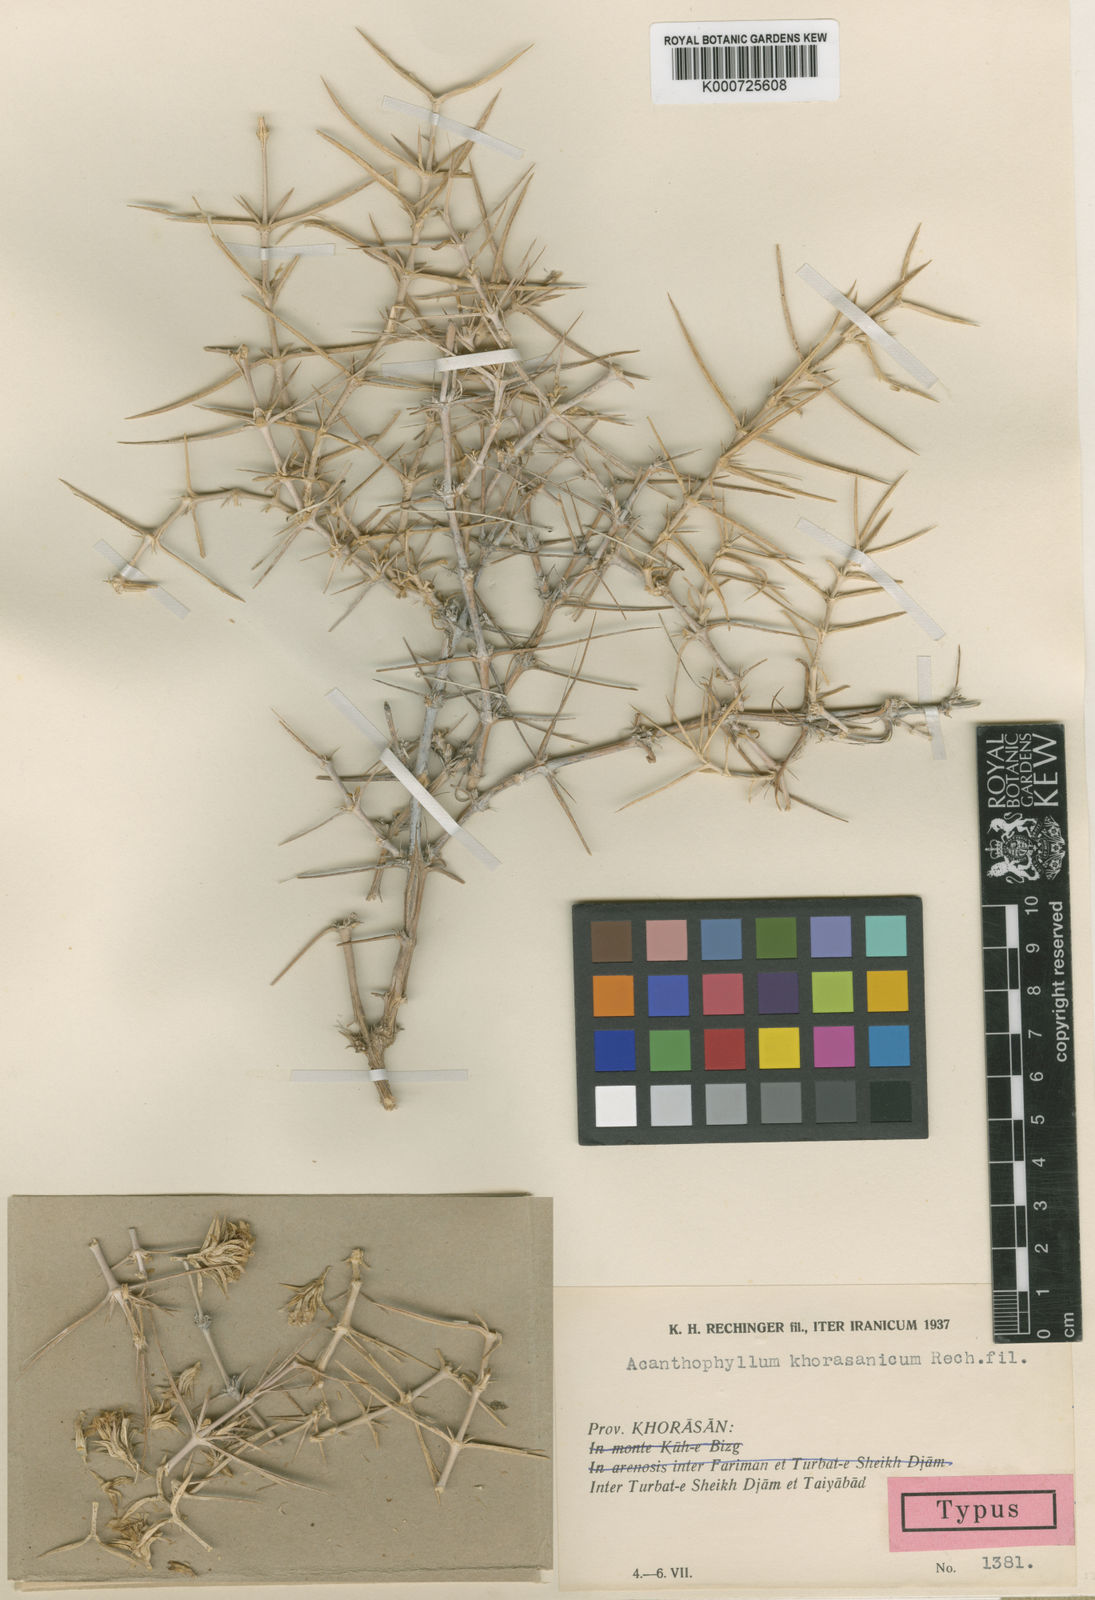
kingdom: Plantae
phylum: Tracheophyta
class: Magnoliopsida
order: Caryophyllales
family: Caryophyllaceae
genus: Acanthophyllum
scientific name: Acanthophyllum korshinskyi
